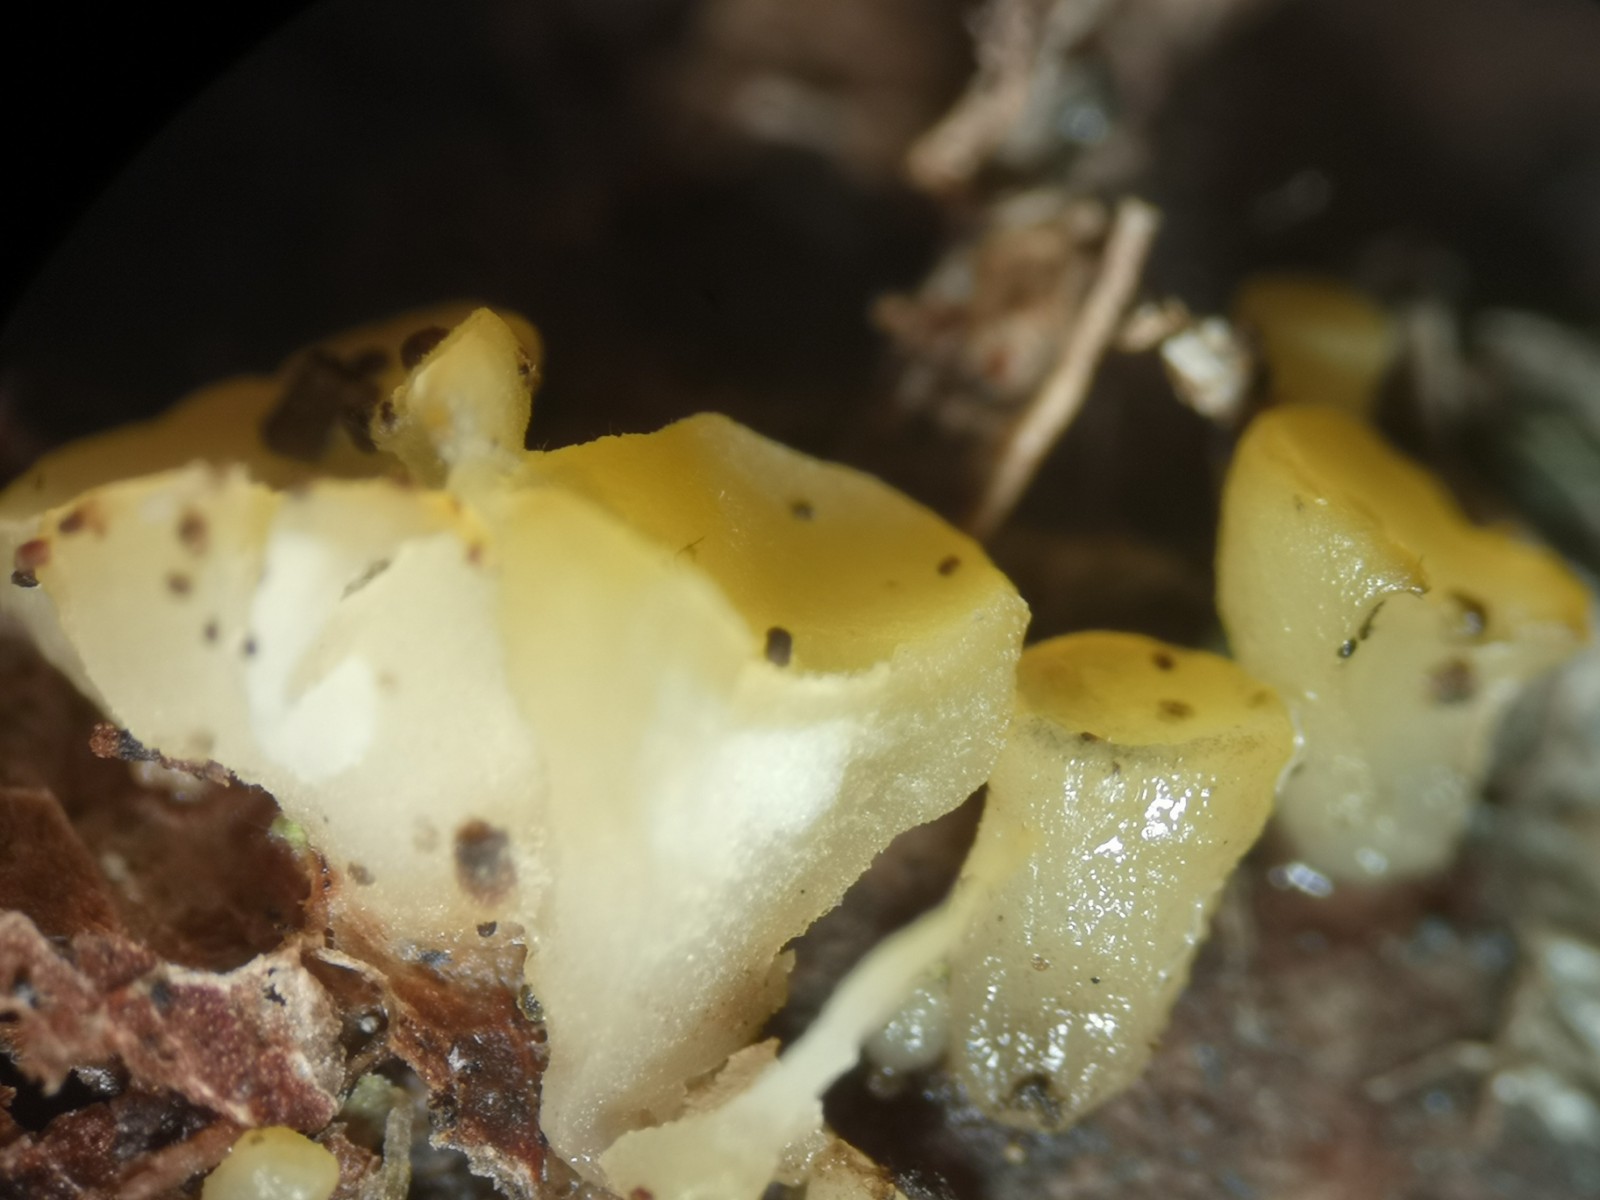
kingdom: Fungi
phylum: Ascomycota
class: Leotiomycetes
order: Helotiales
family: Helotiaceae
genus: Hymenoscyphus
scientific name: Hymenoscyphus fructigenus
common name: frugt-stilkskive
